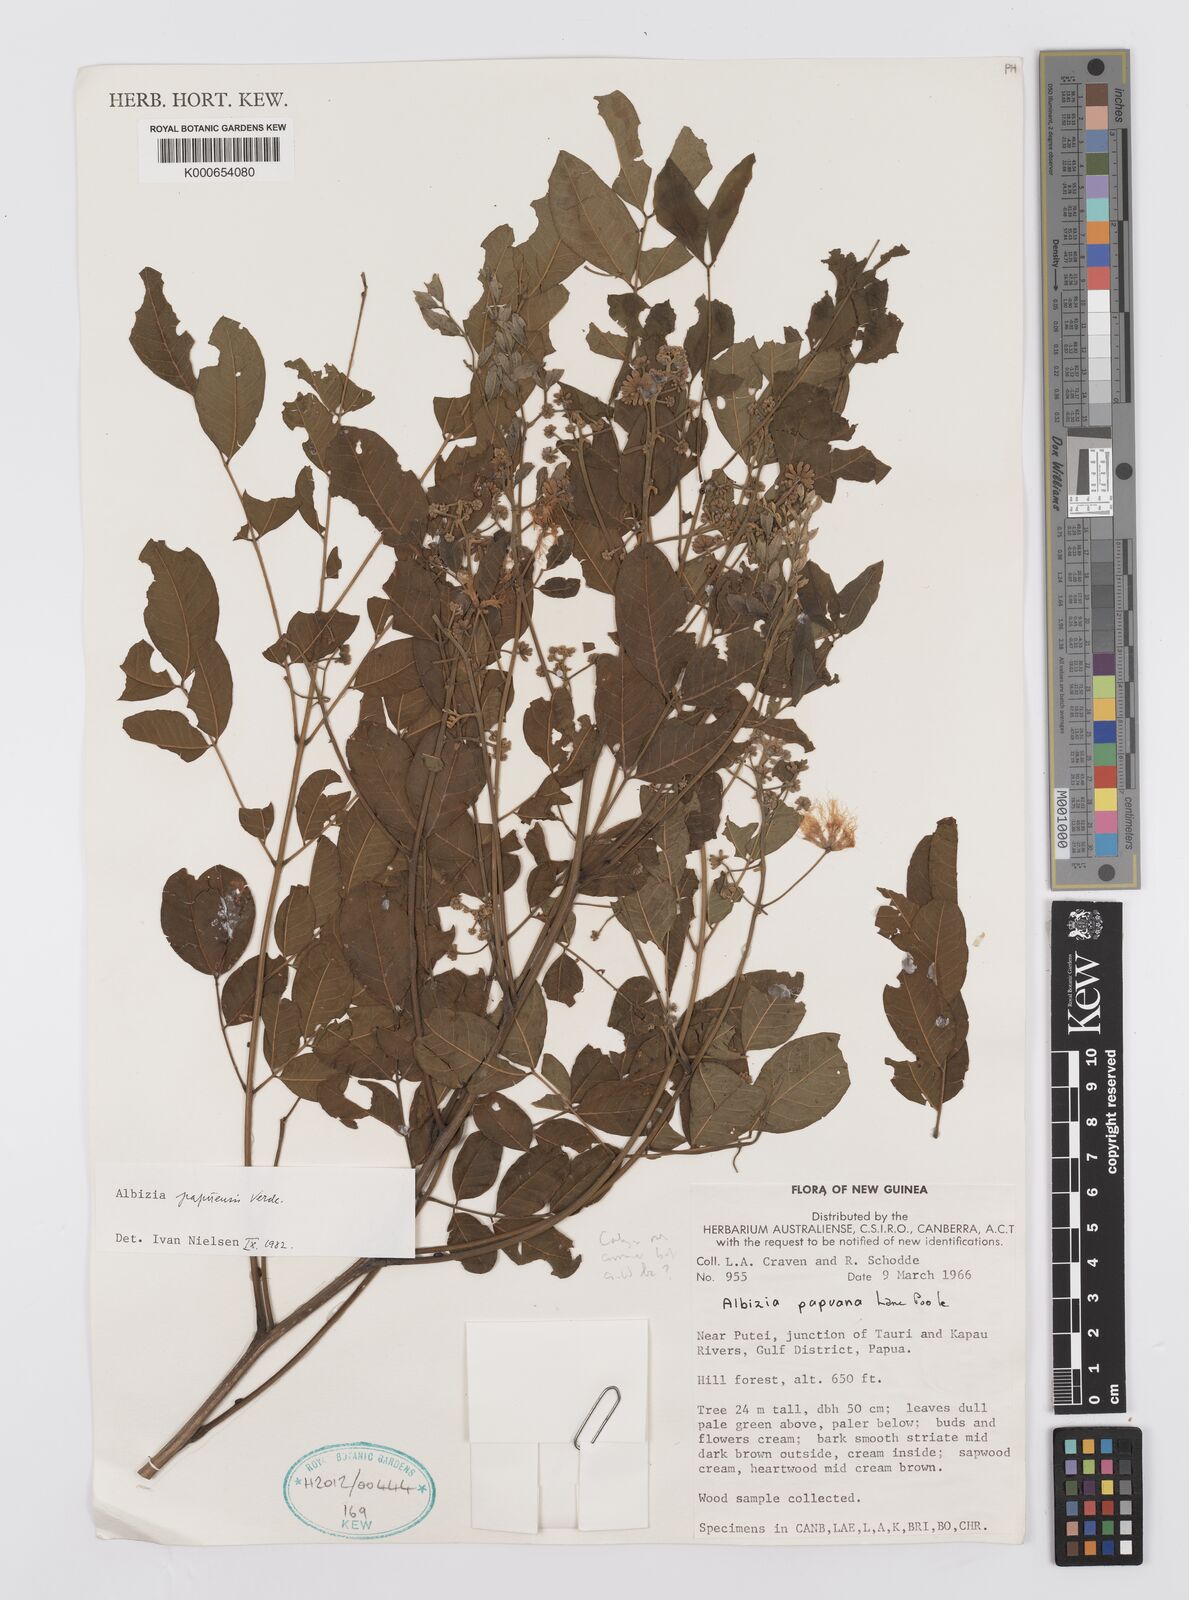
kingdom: Plantae
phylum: Tracheophyta
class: Magnoliopsida
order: Fabales
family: Fabaceae
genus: Albizia
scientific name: Albizia papuensis
